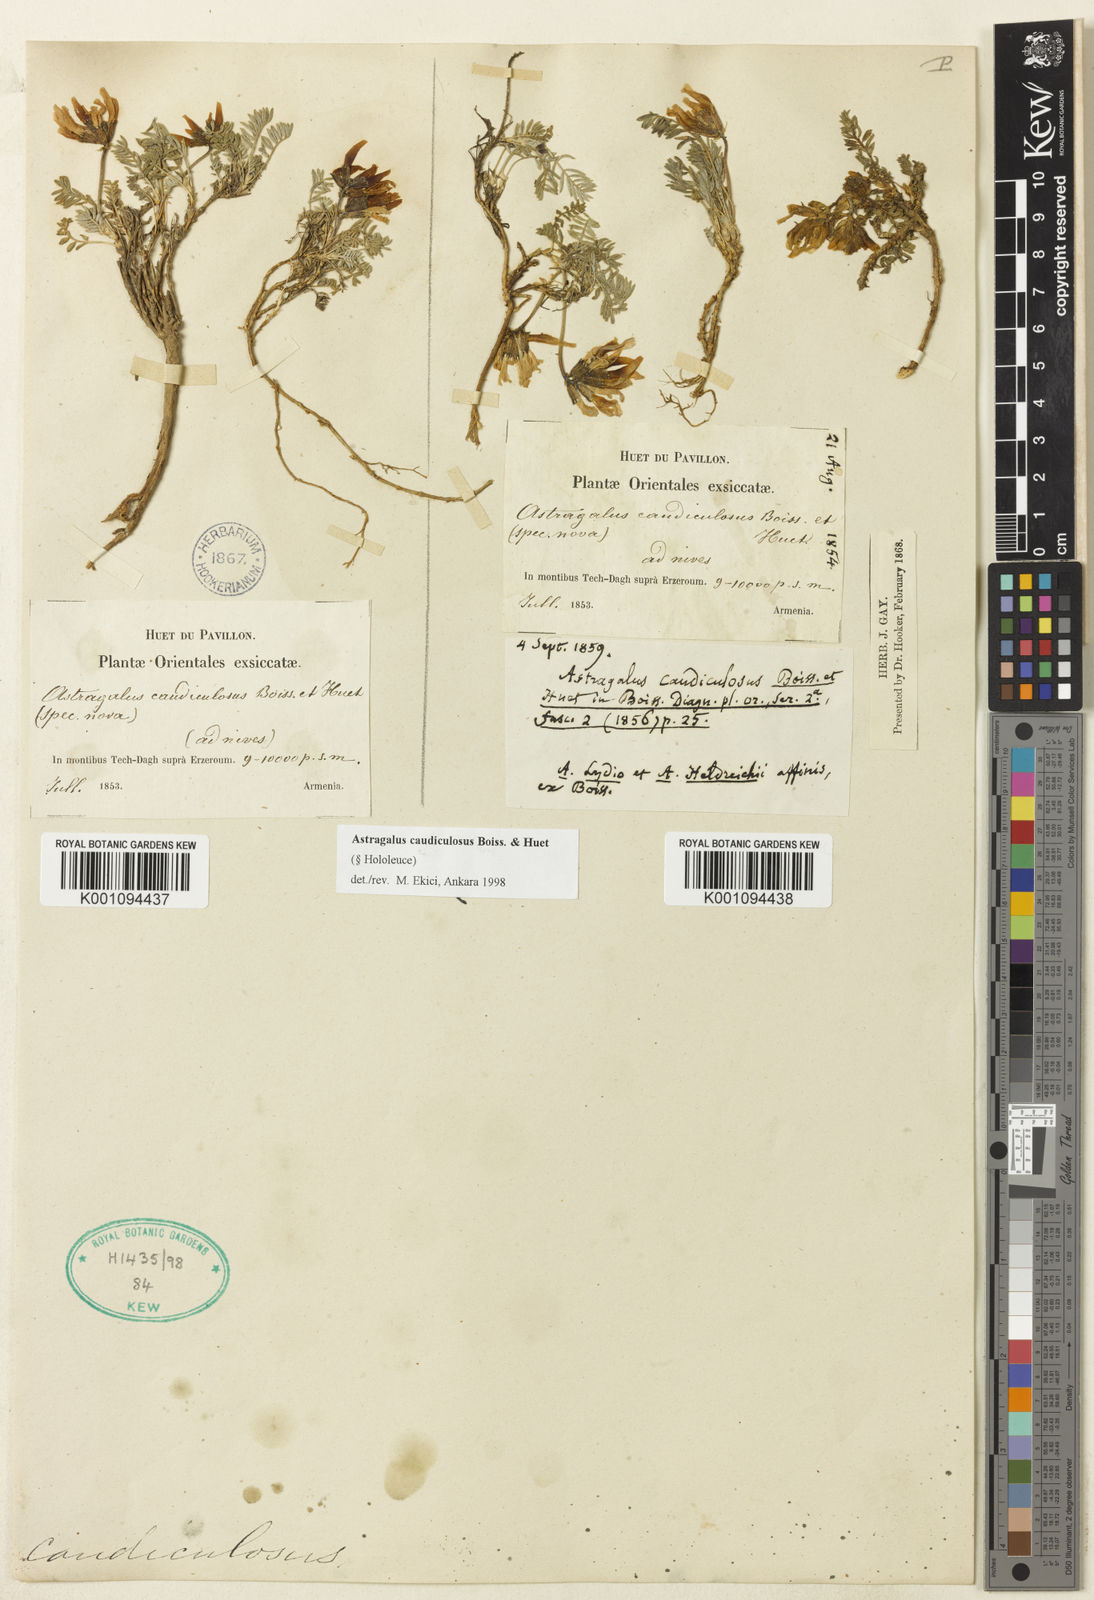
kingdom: Plantae
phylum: Tracheophyta
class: Magnoliopsida
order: Fabales
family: Fabaceae
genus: Astragalus
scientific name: Astragalus
